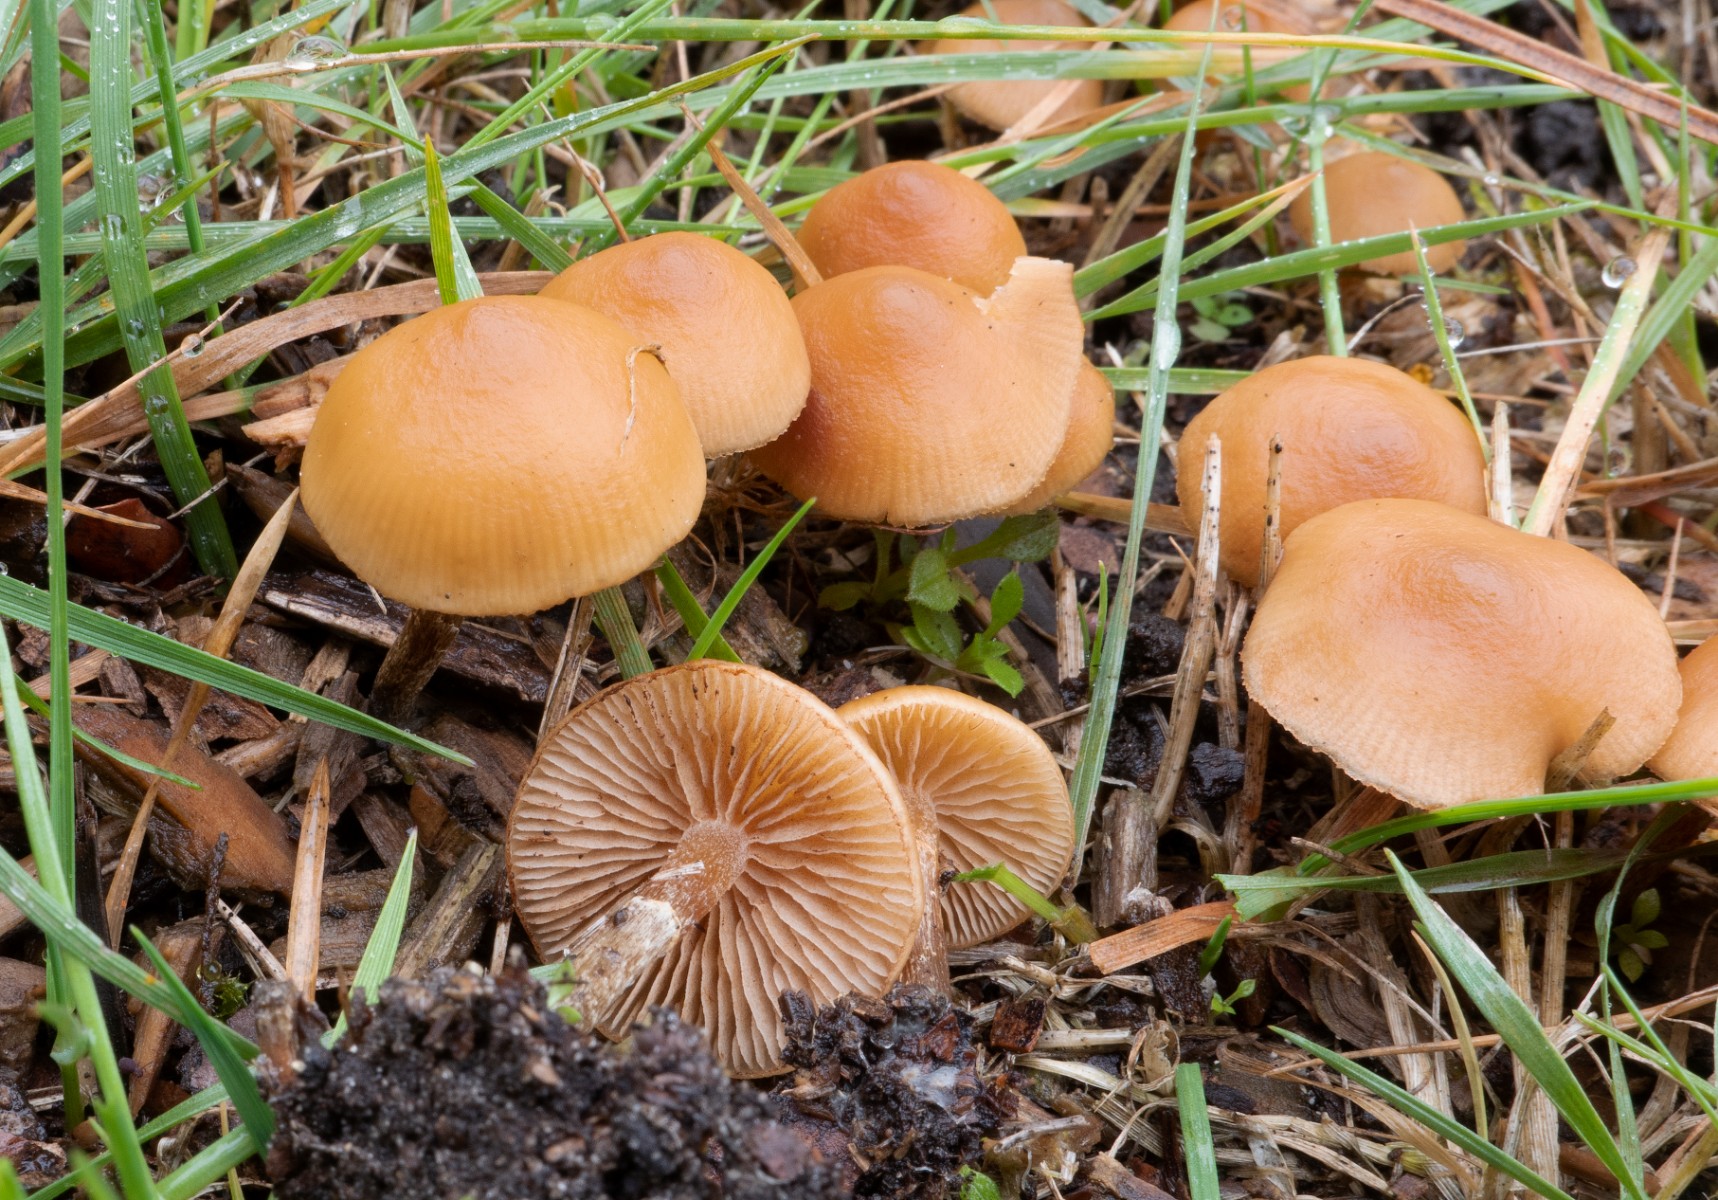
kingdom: Fungi
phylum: Basidiomycota
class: Agaricomycetes
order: Agaricales
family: Hymenogastraceae
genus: Galerina
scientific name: Galerina marginata
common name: randbæltet hjelmhat
